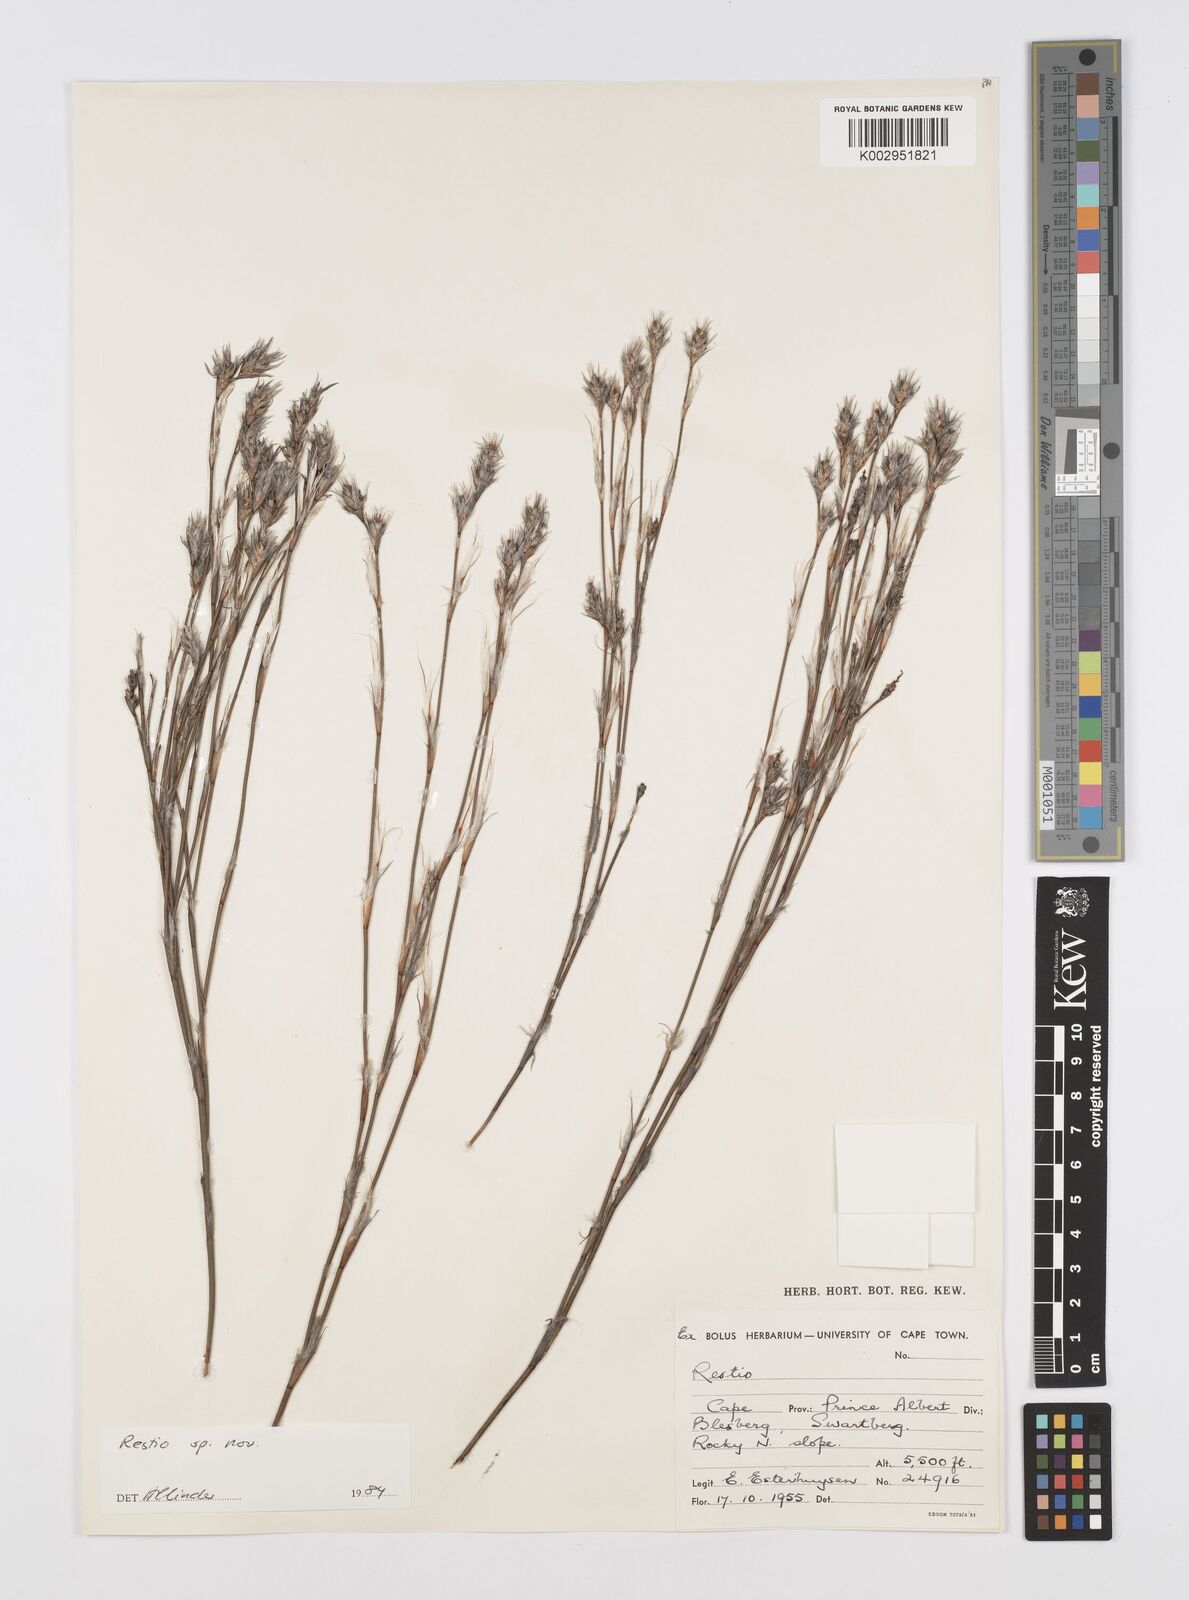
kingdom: Plantae
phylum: Tracheophyta
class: Liliopsida
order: Poales
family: Restionaceae
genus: Restio
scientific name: Restio
